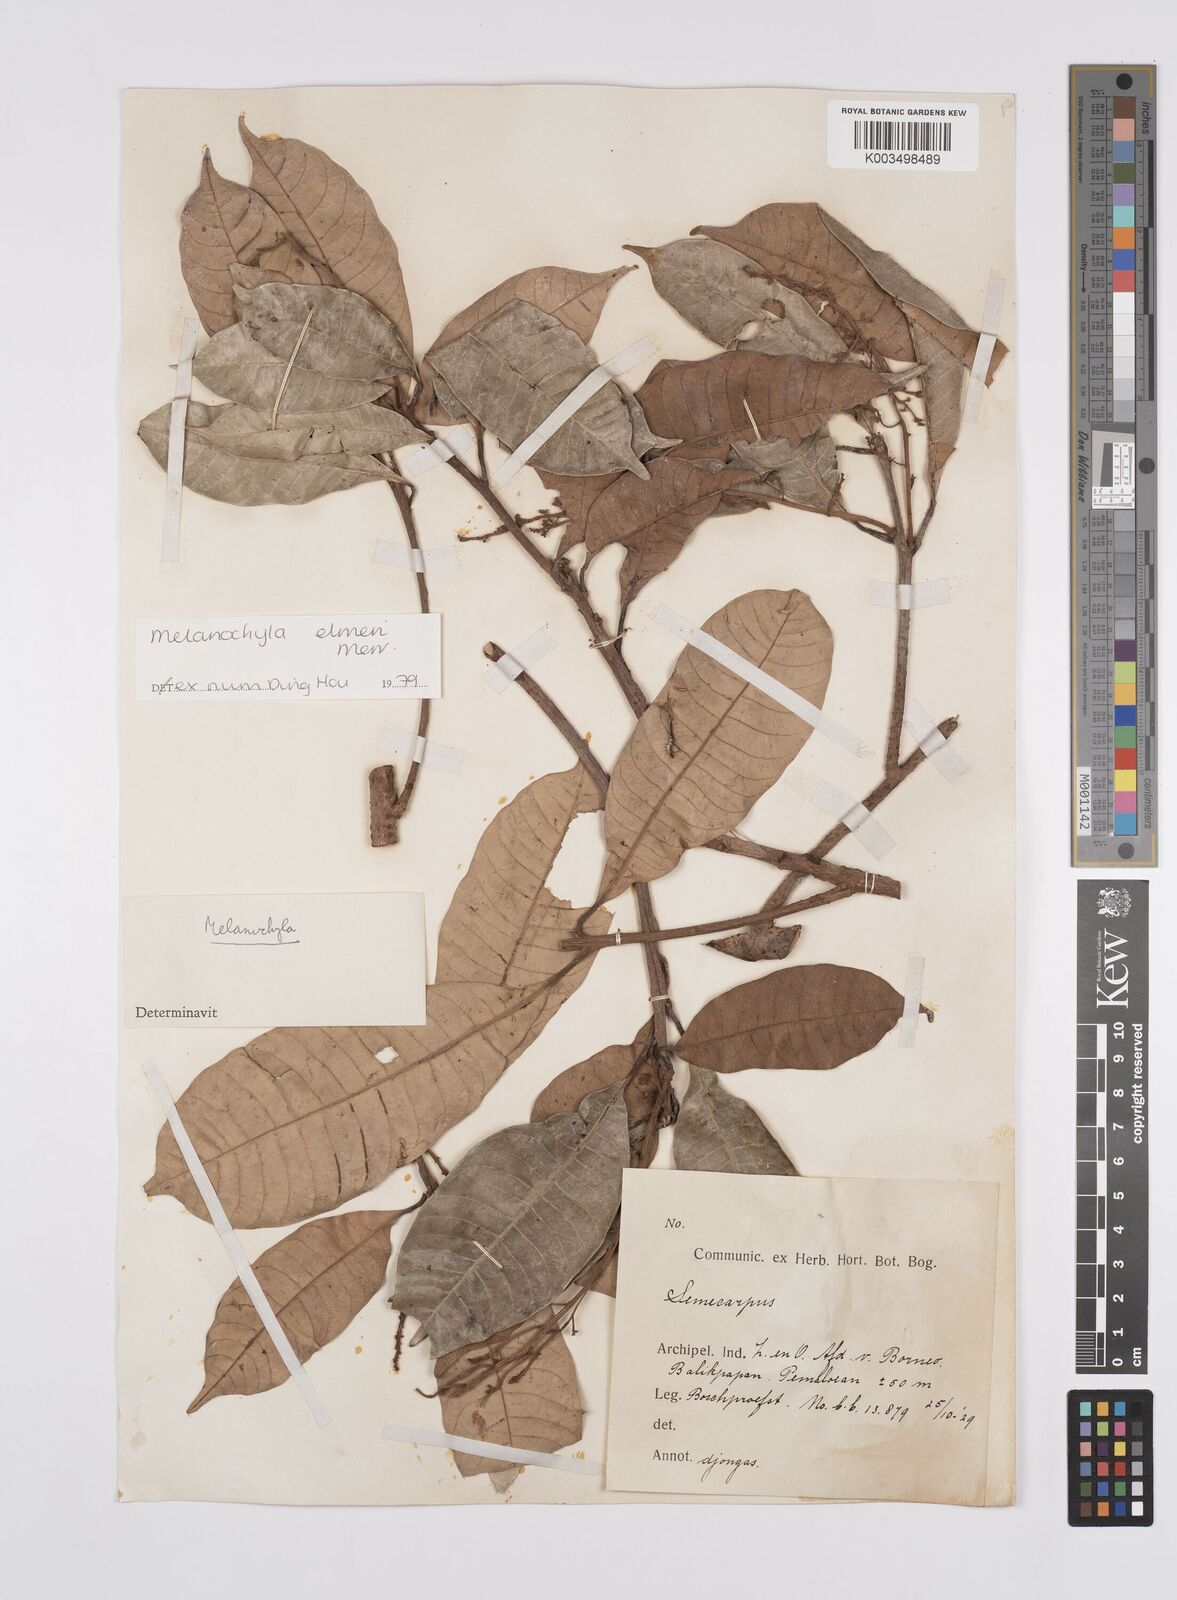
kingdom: Plantae
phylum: Tracheophyta
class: Magnoliopsida
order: Sapindales
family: Anacardiaceae
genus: Melanochyla
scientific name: Melanochyla elmeri
